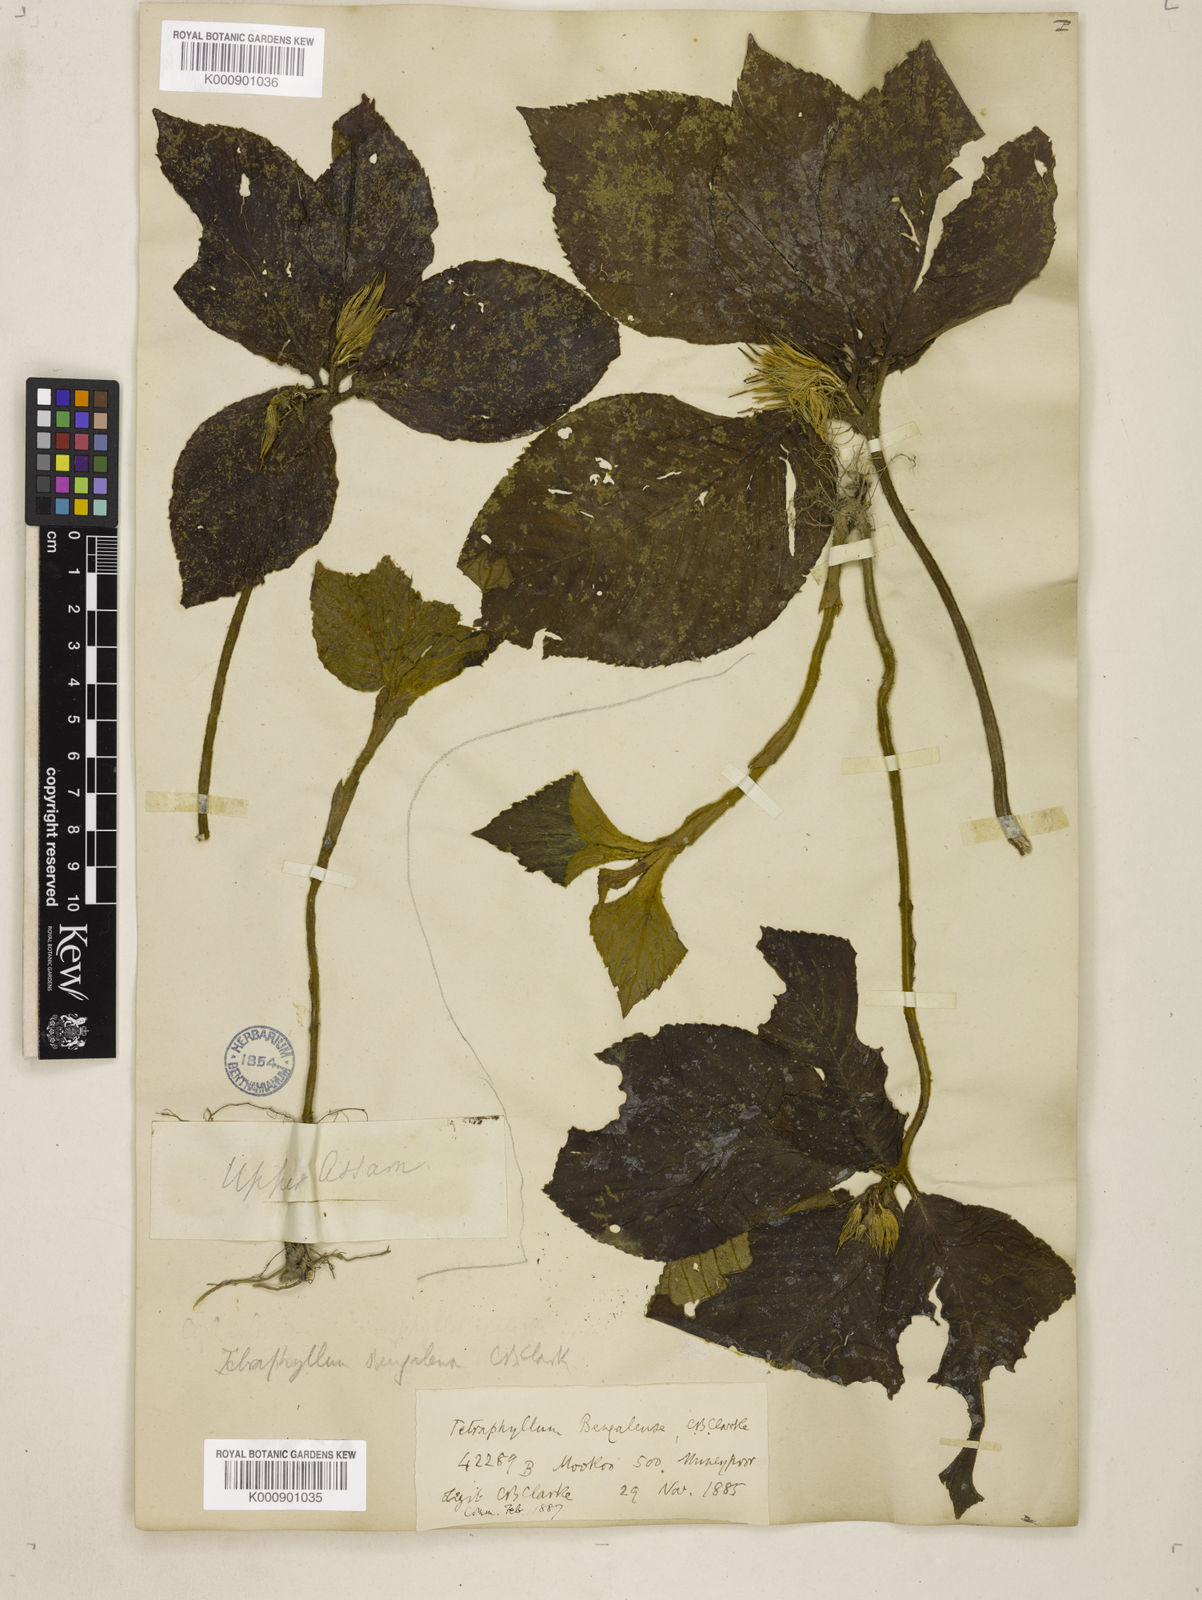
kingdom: Plantae
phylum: Tracheophyta
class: Magnoliopsida
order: Lamiales
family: Gesneriaceae
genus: Tetraphylloides
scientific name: Tetraphylloides bengalensis
